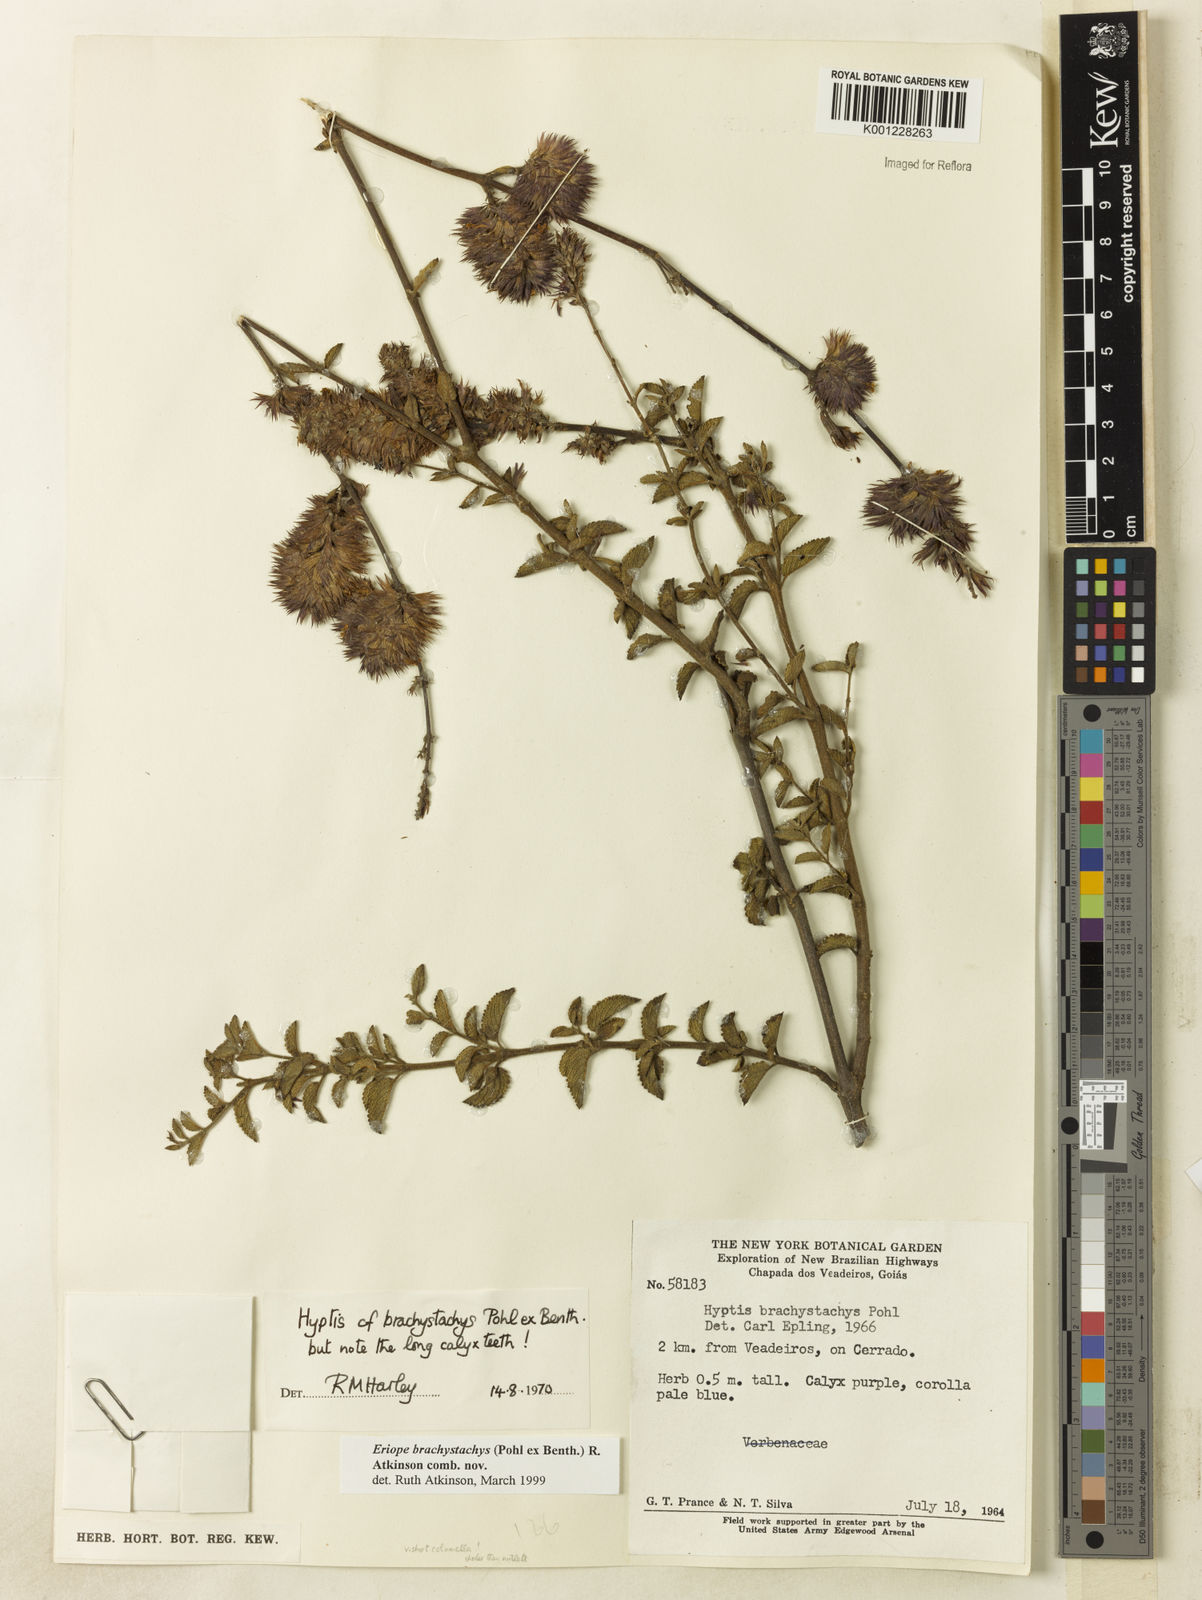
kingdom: Plantae
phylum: Tracheophyta
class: Magnoliopsida
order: Lamiales
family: Lamiaceae
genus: Hypenia
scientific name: Hypenia brachystachys
